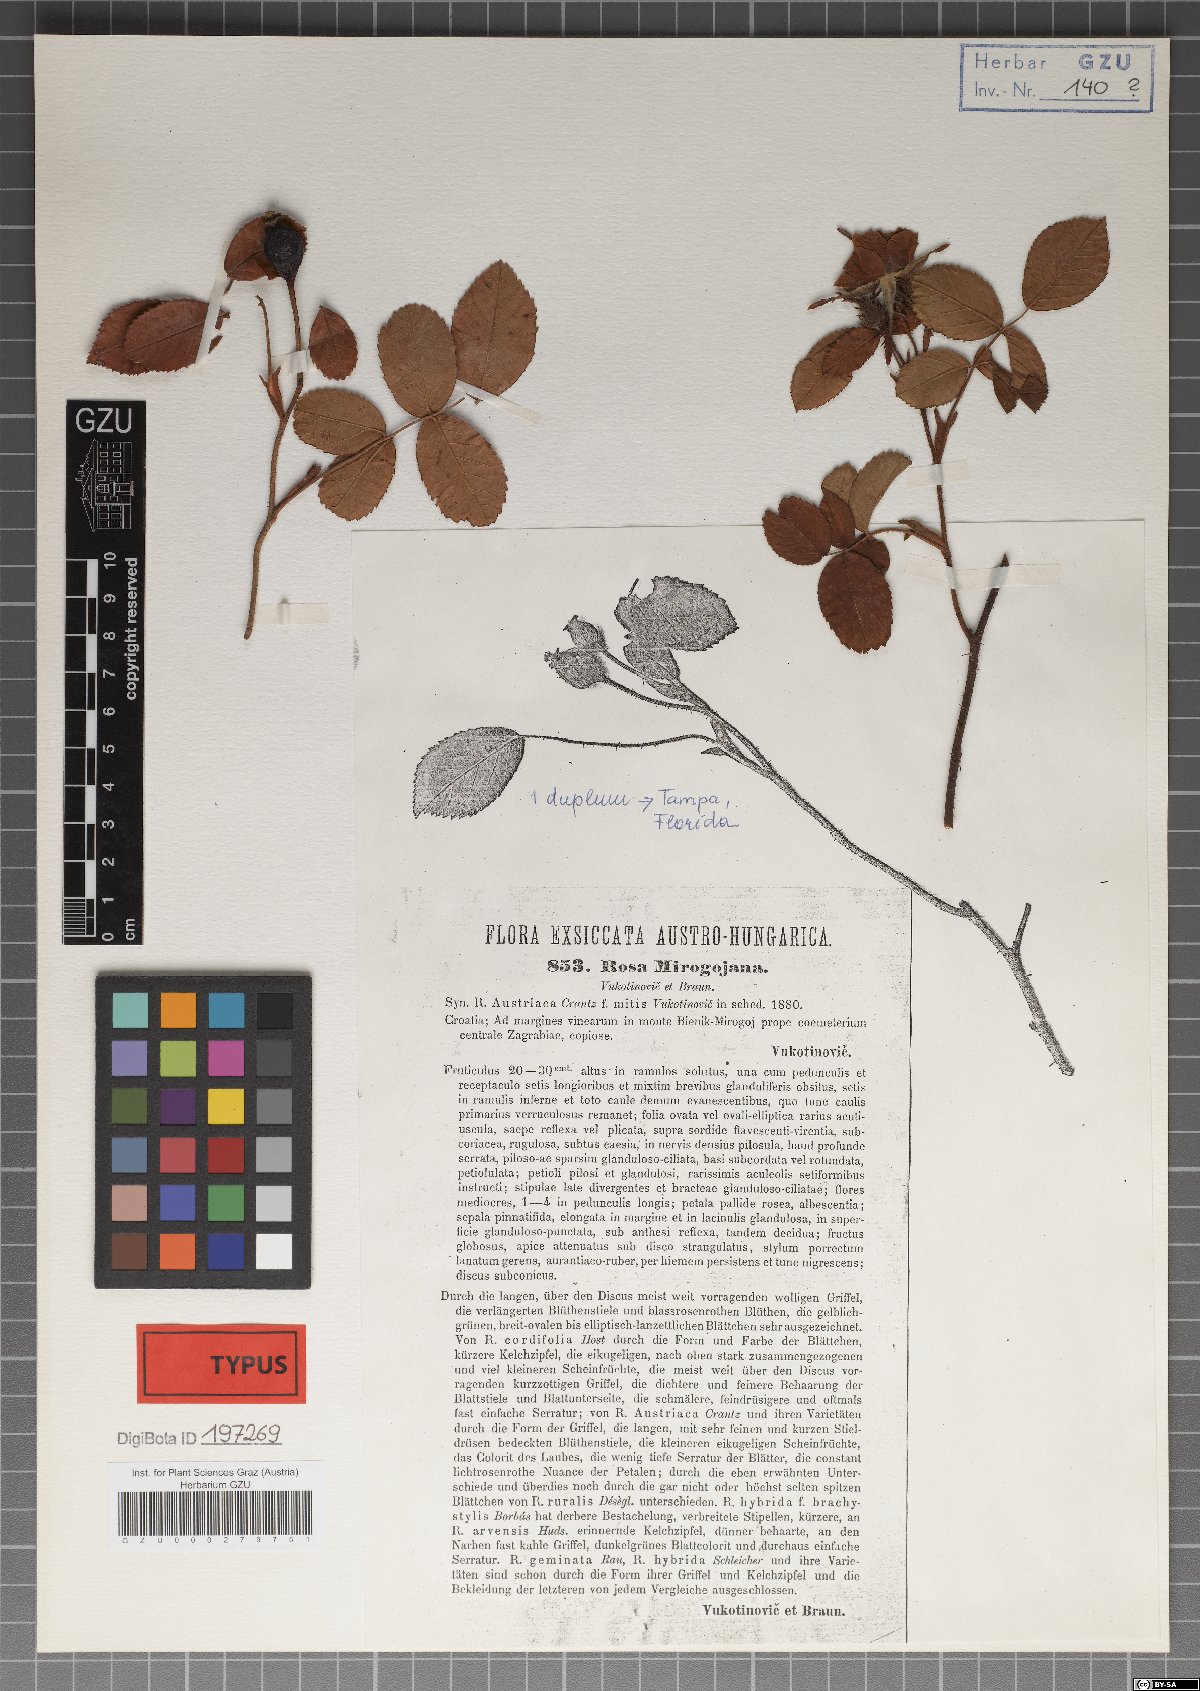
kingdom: Plantae
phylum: Tracheophyta
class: Magnoliopsida
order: Rosales
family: Rosaceae
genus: Rosa
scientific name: Rosa gallica
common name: French rose
